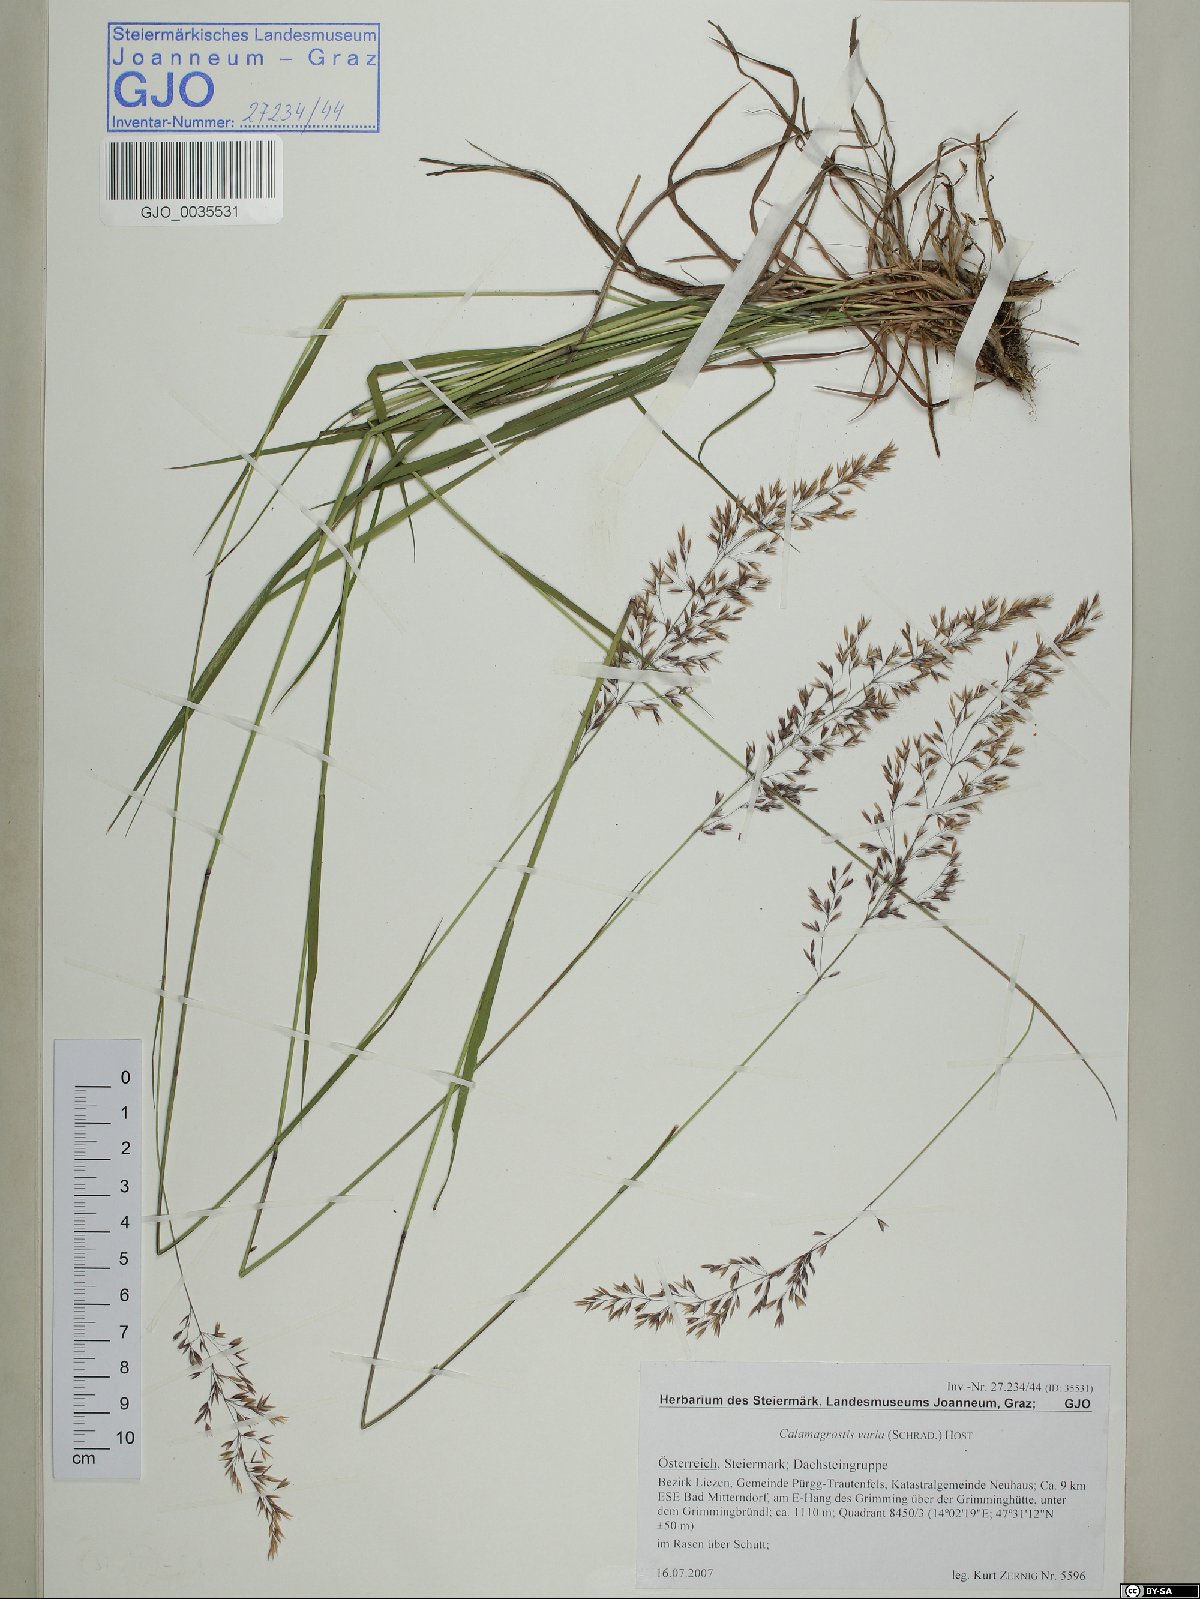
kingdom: Plantae
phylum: Tracheophyta
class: Liliopsida
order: Poales
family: Poaceae
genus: Calamagrostis
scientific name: Calamagrostis varia
